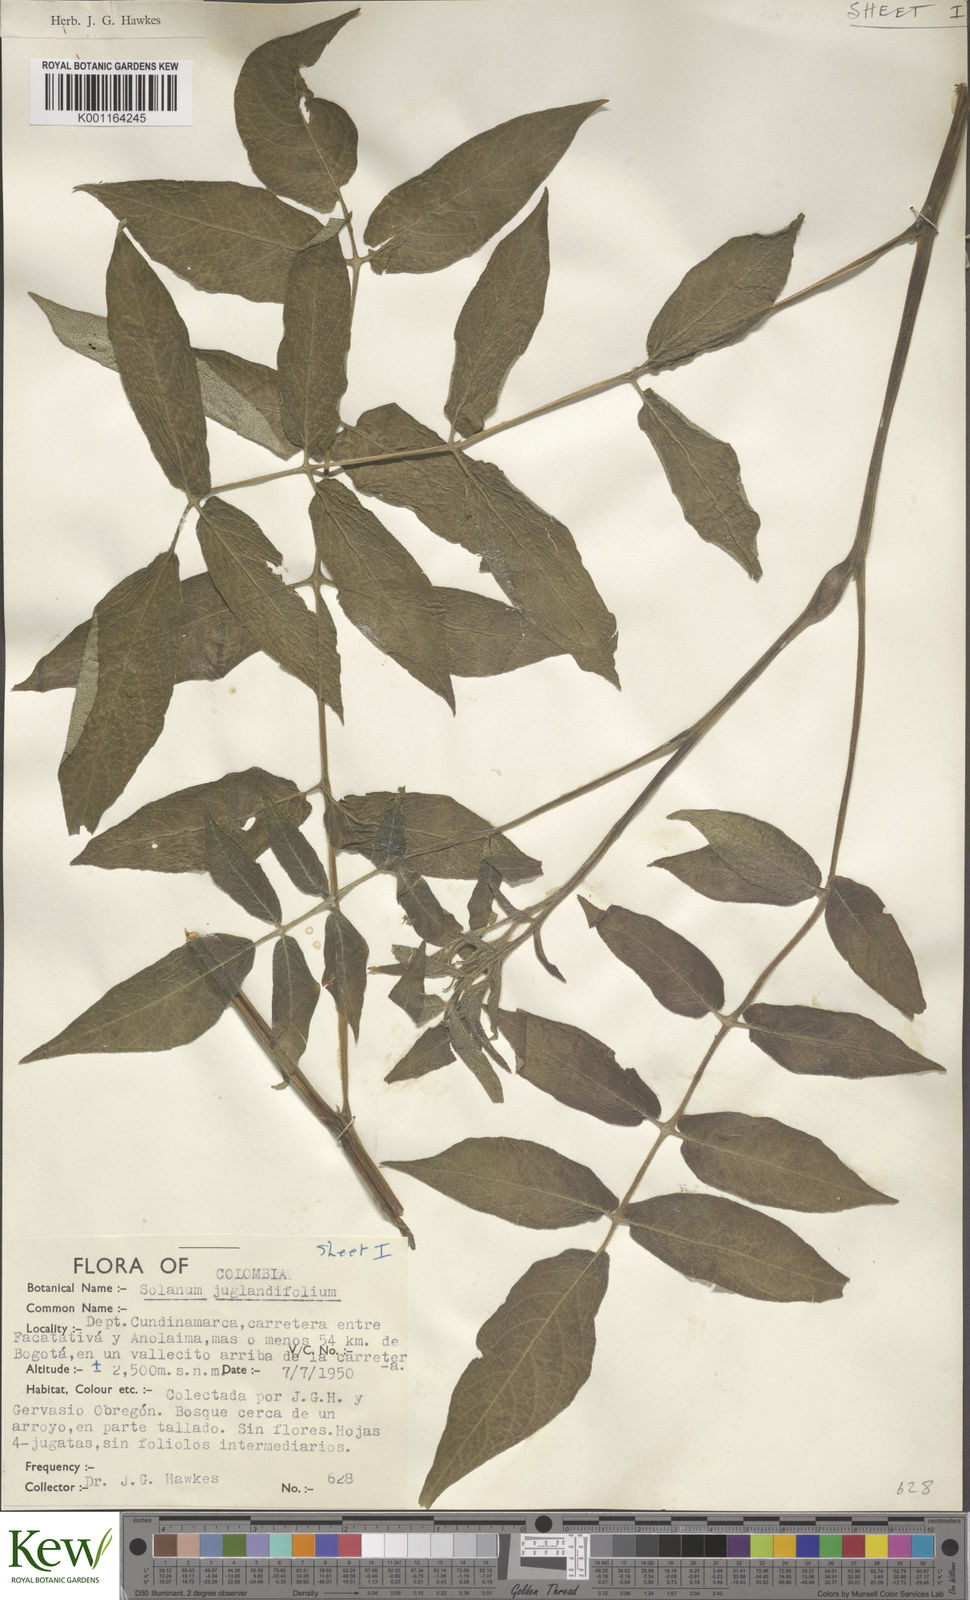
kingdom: Plantae
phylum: Tracheophyta
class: Magnoliopsida
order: Solanales
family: Solanaceae
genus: Solanum
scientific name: Solanum juglandifolium
